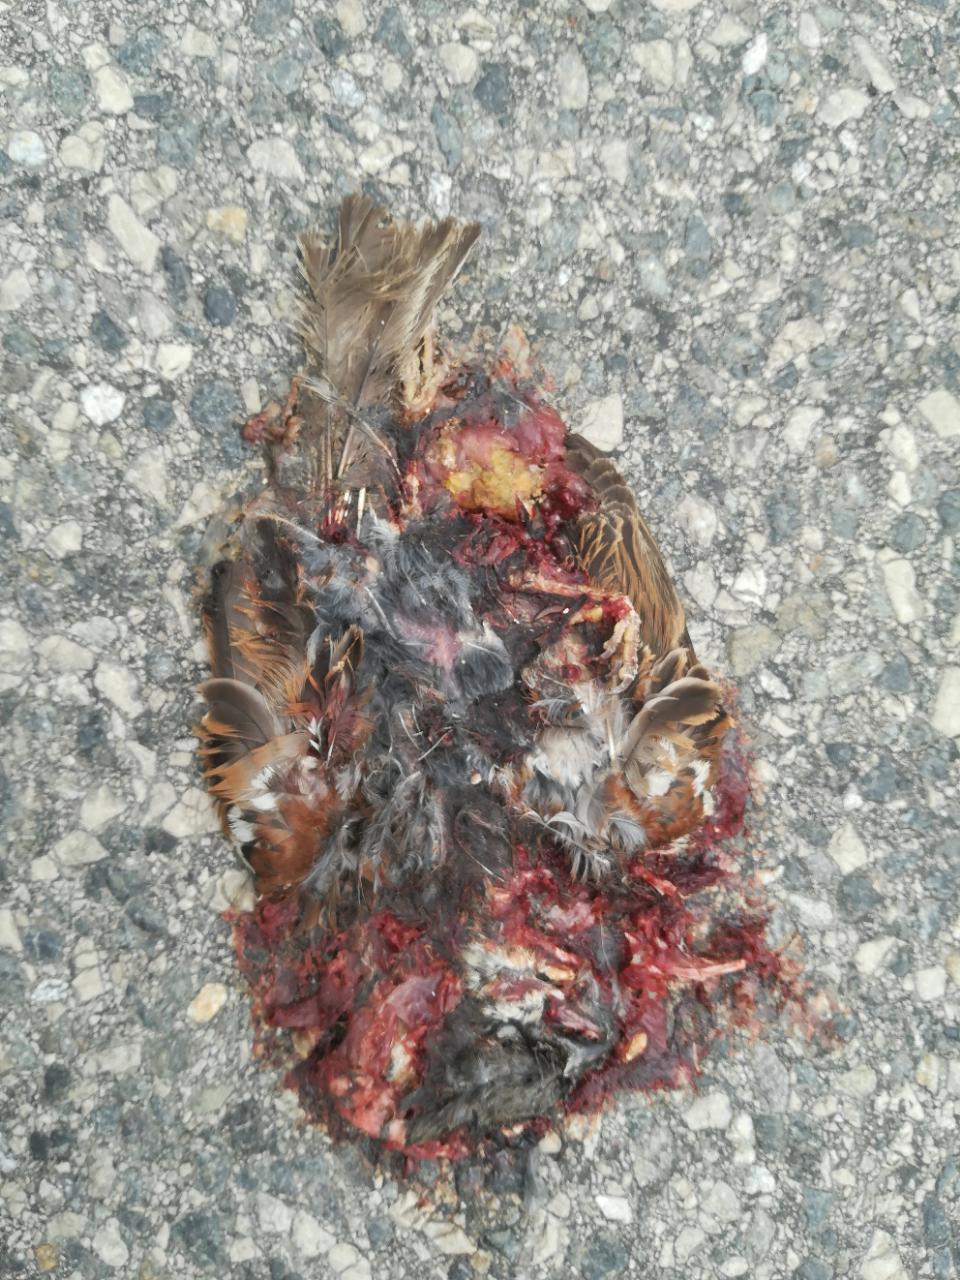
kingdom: Animalia
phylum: Chordata
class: Aves
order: Passeriformes
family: Passeridae
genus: Passer
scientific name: Passer
